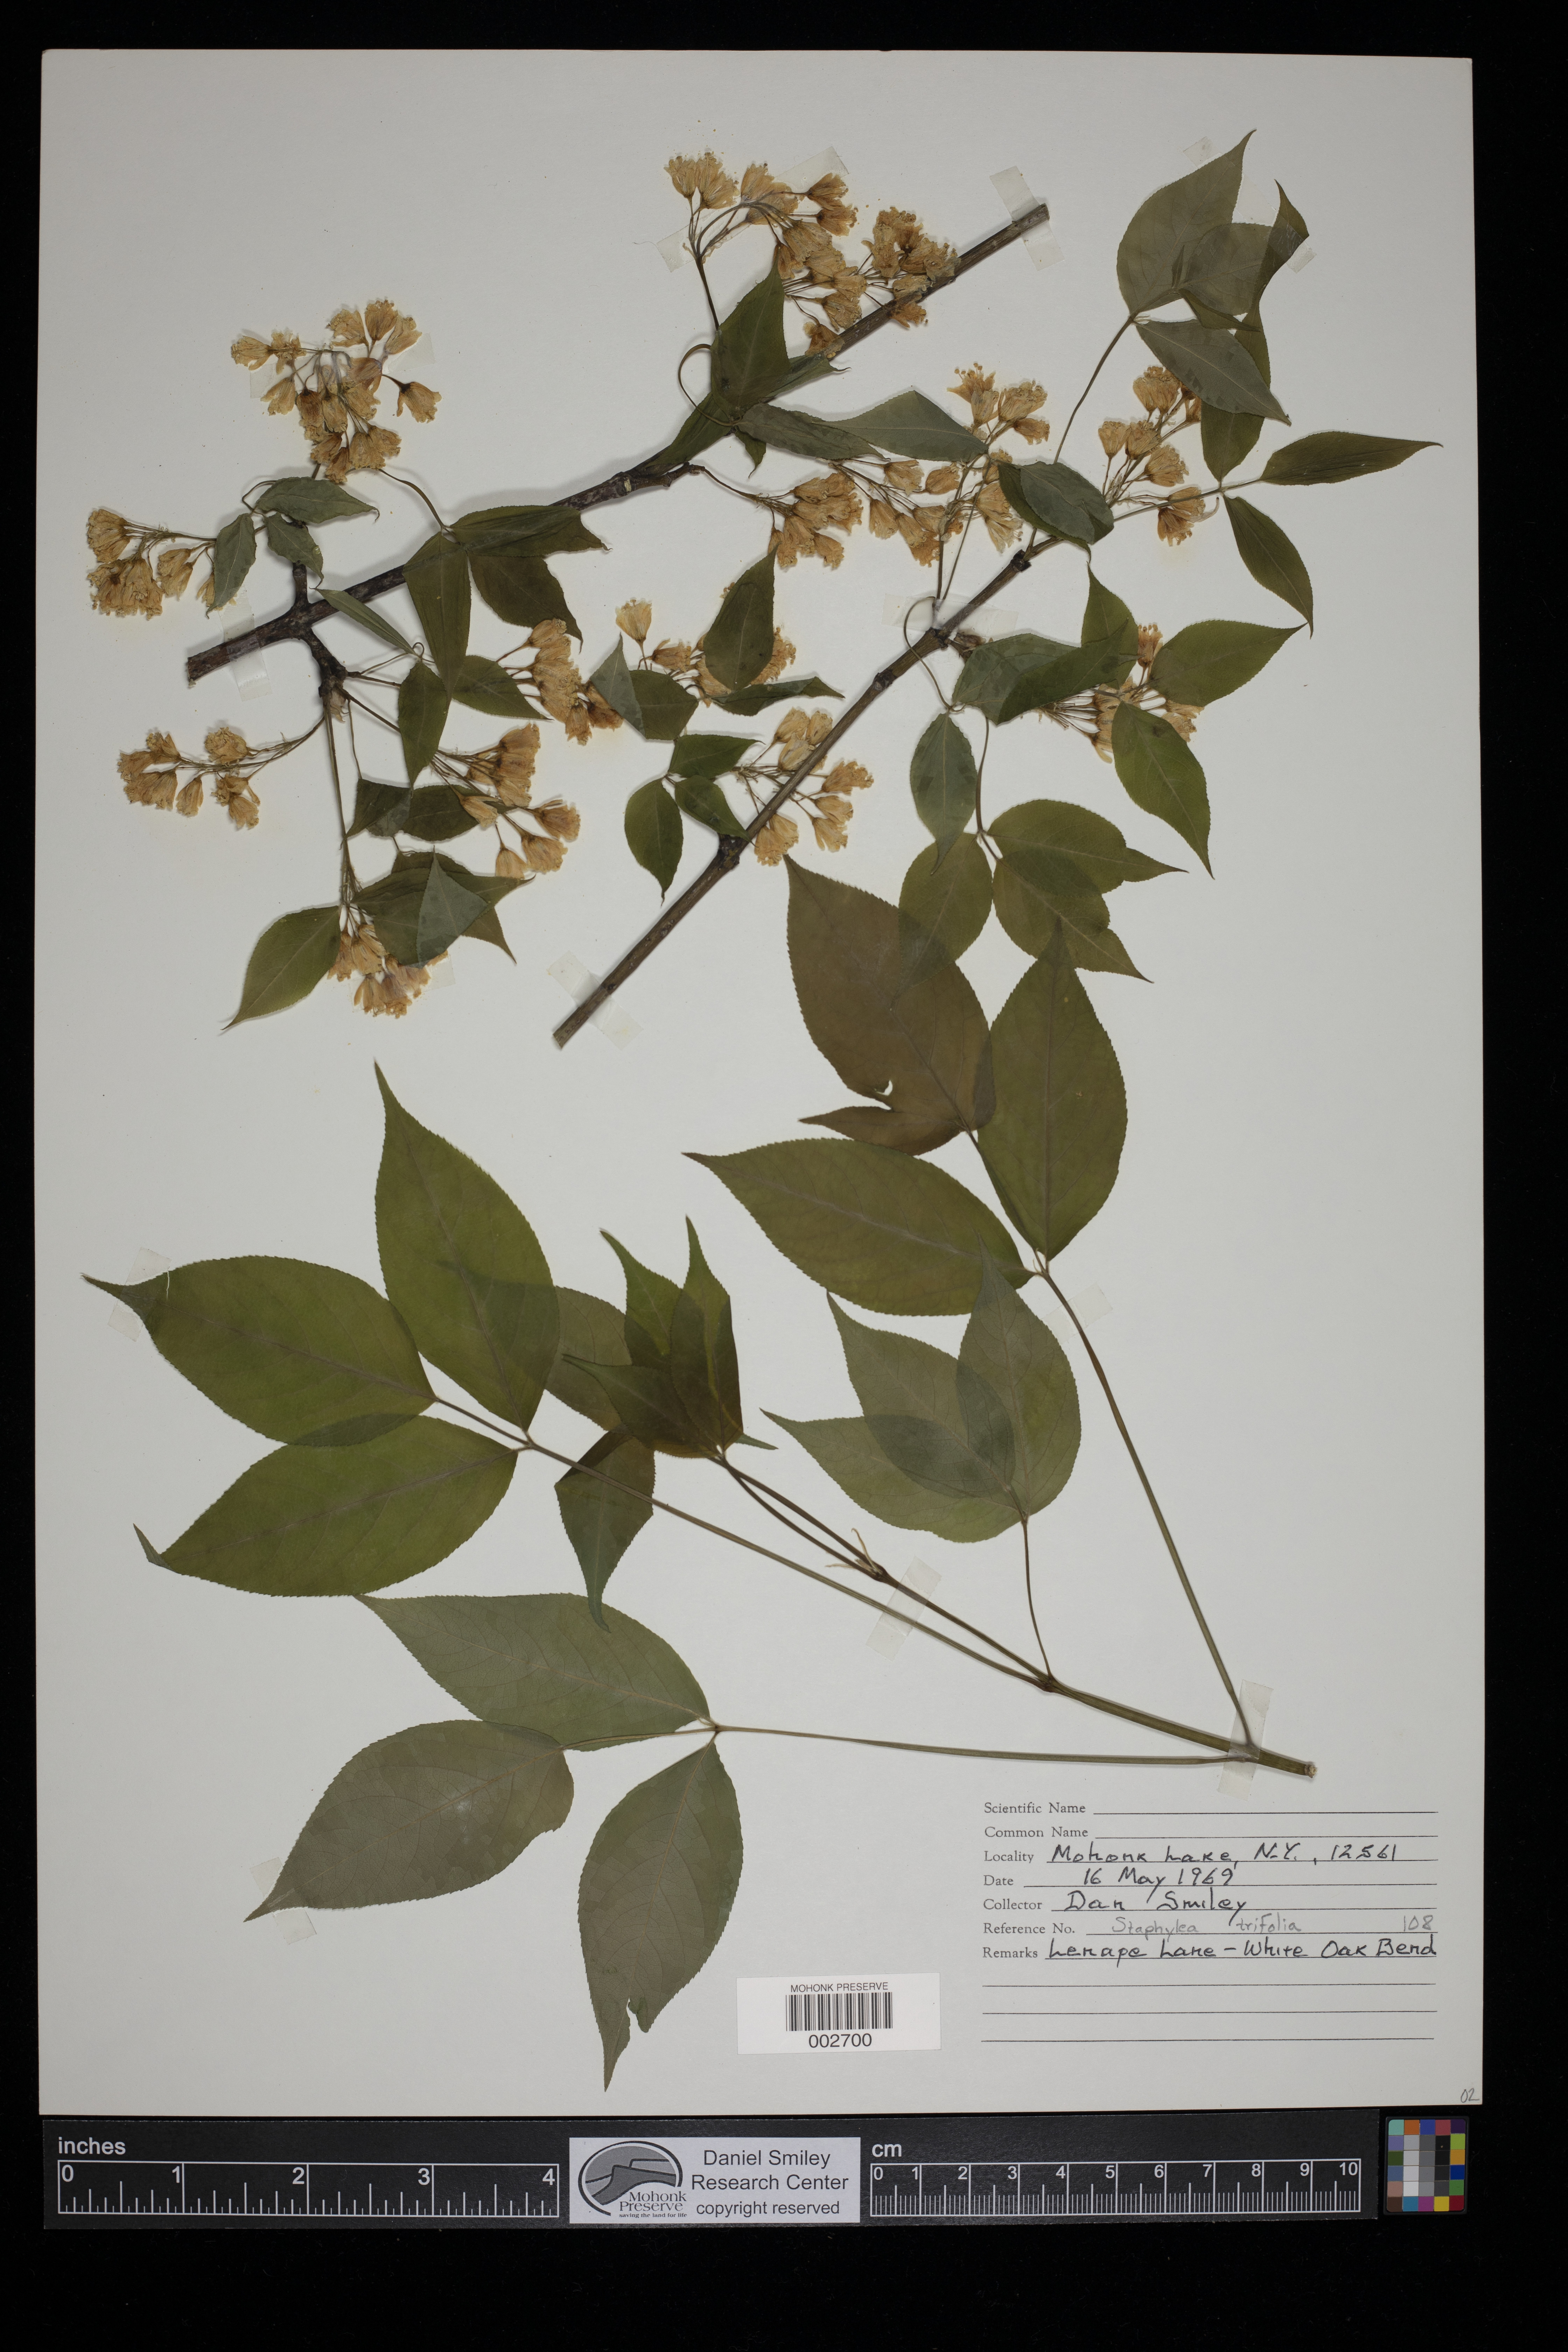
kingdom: Plantae
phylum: Tracheophyta
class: Magnoliopsida
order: Crossosomatales
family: Staphyleaceae
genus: Staphylea
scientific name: Staphylea trifolia
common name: American bladdernut
